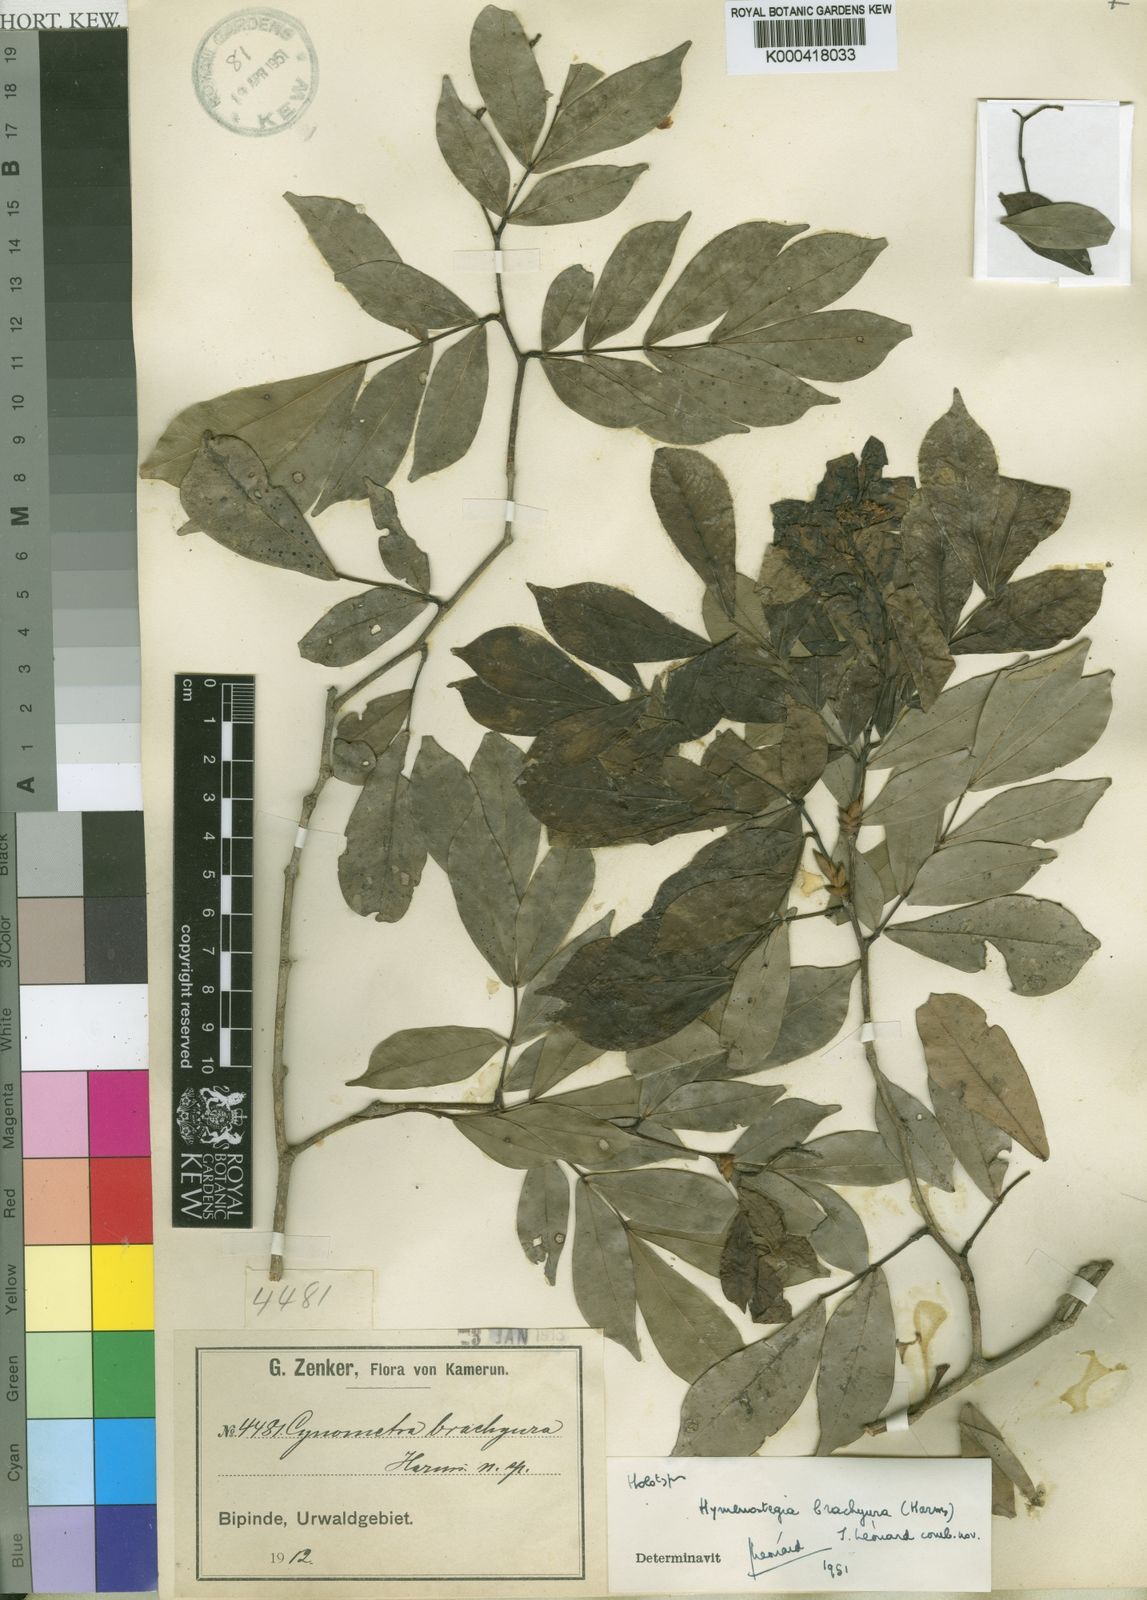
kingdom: Plantae
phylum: Tracheophyta
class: Magnoliopsida
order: Fabales
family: Fabaceae
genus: Hymenostegia
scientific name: Hymenostegia
